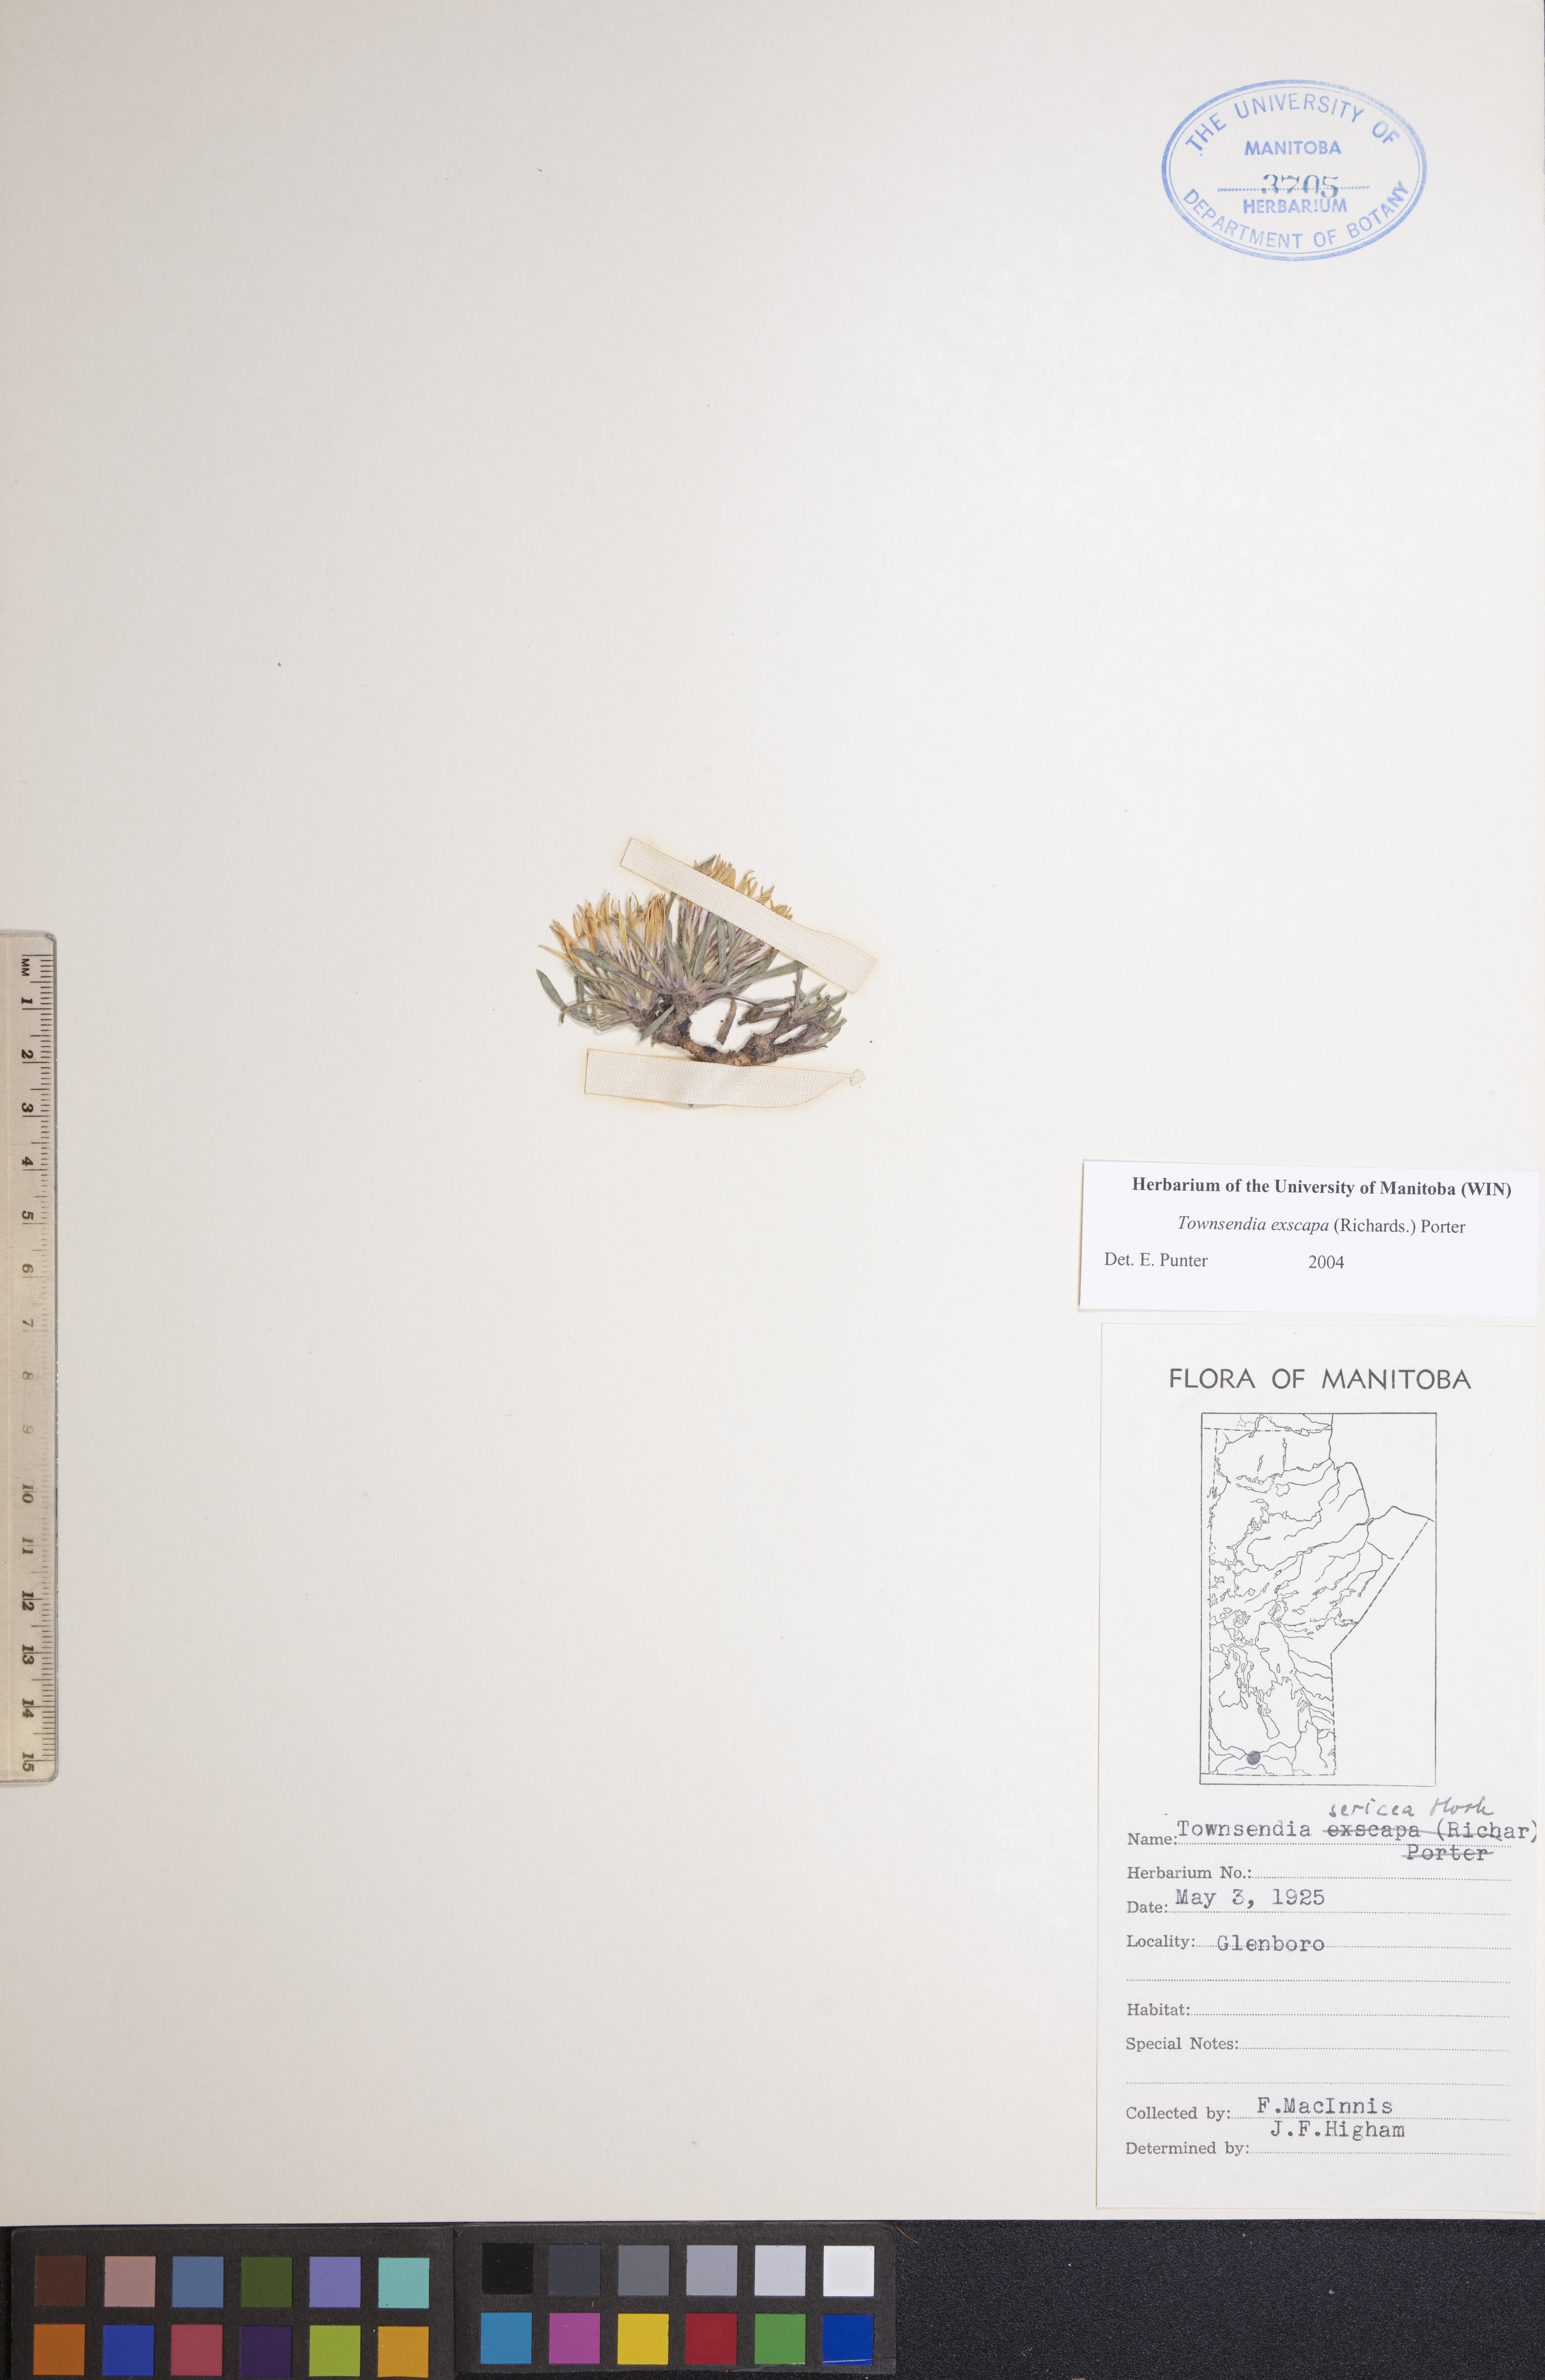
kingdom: Plantae
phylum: Tracheophyta
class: Magnoliopsida
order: Asterales
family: Asteraceae
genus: Townsendia
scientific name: Townsendia exscapa
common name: Dwarf townsendia
